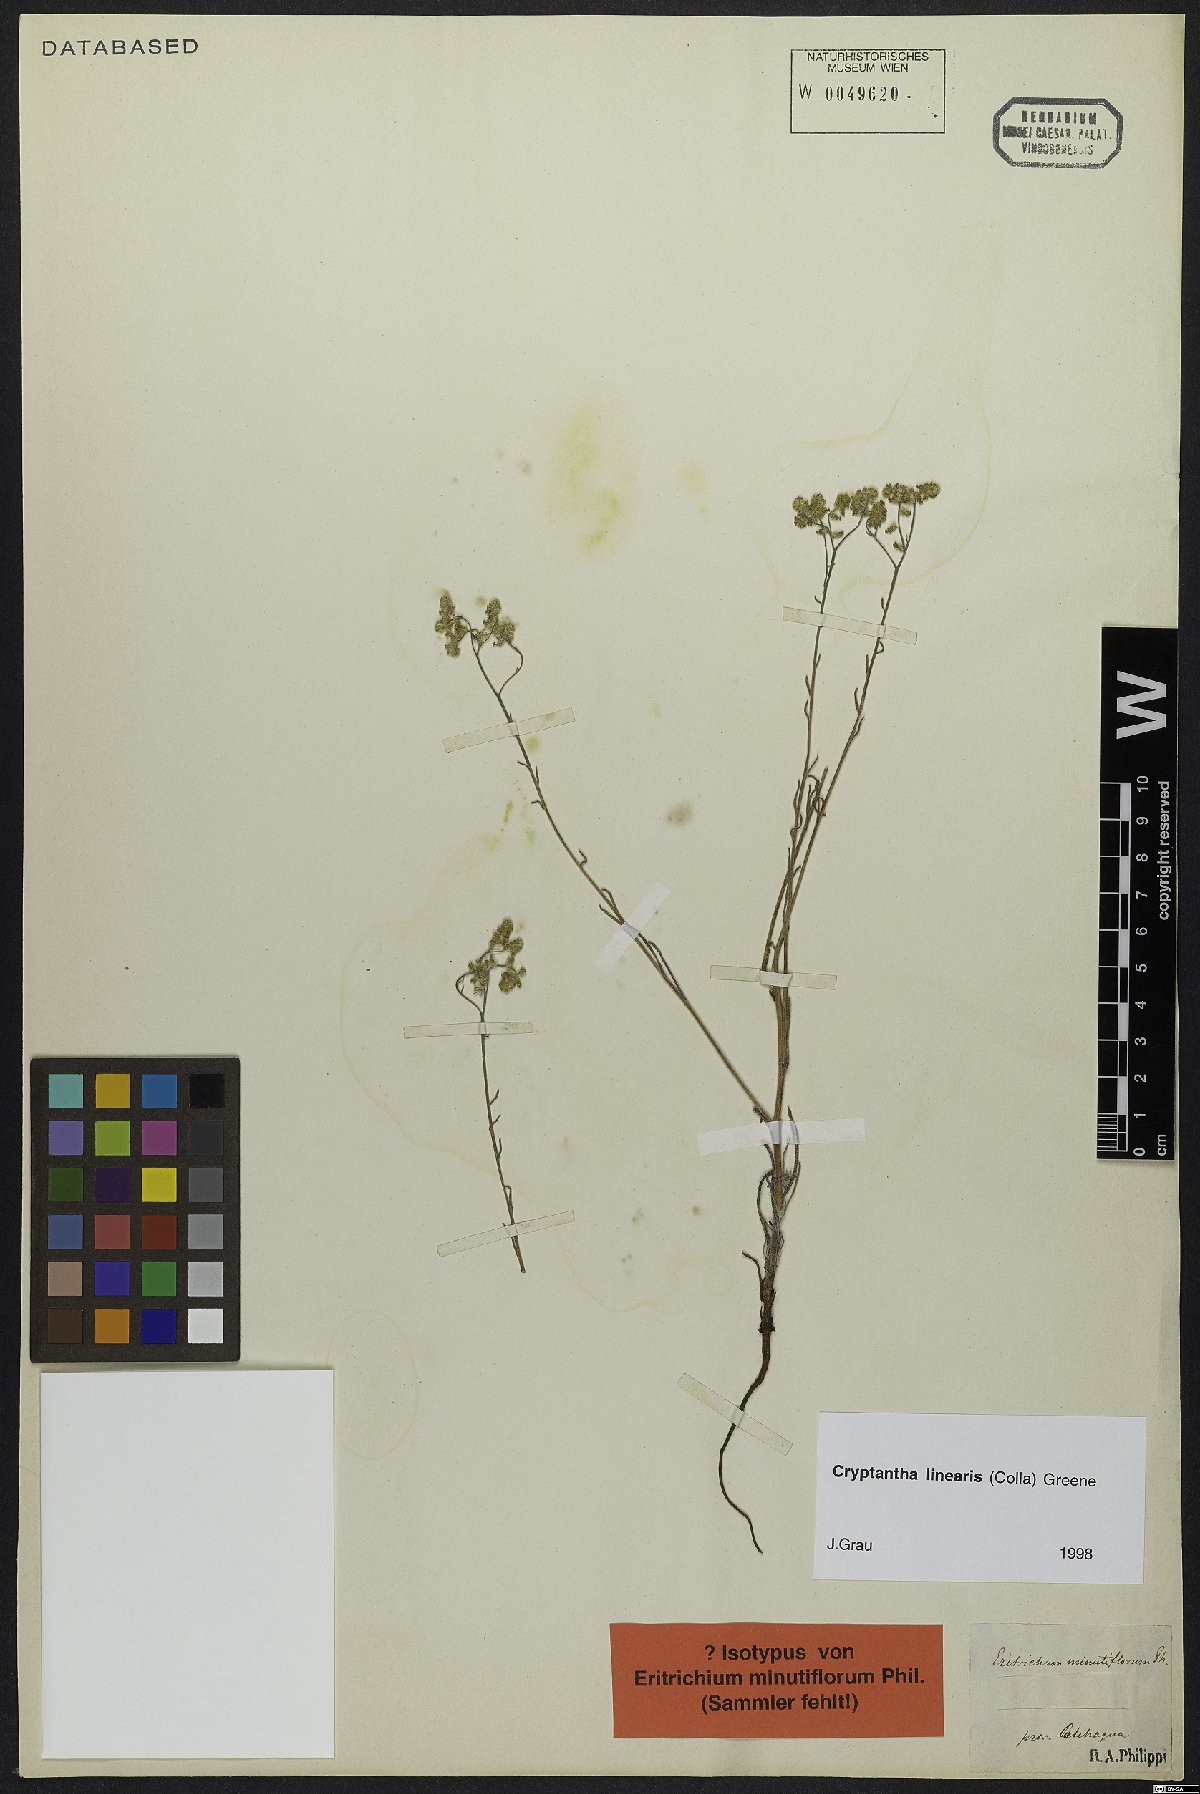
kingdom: Plantae
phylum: Tracheophyta
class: Magnoliopsida
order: Boraginales
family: Boraginaceae
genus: Cryptantha
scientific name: Cryptantha linearis
